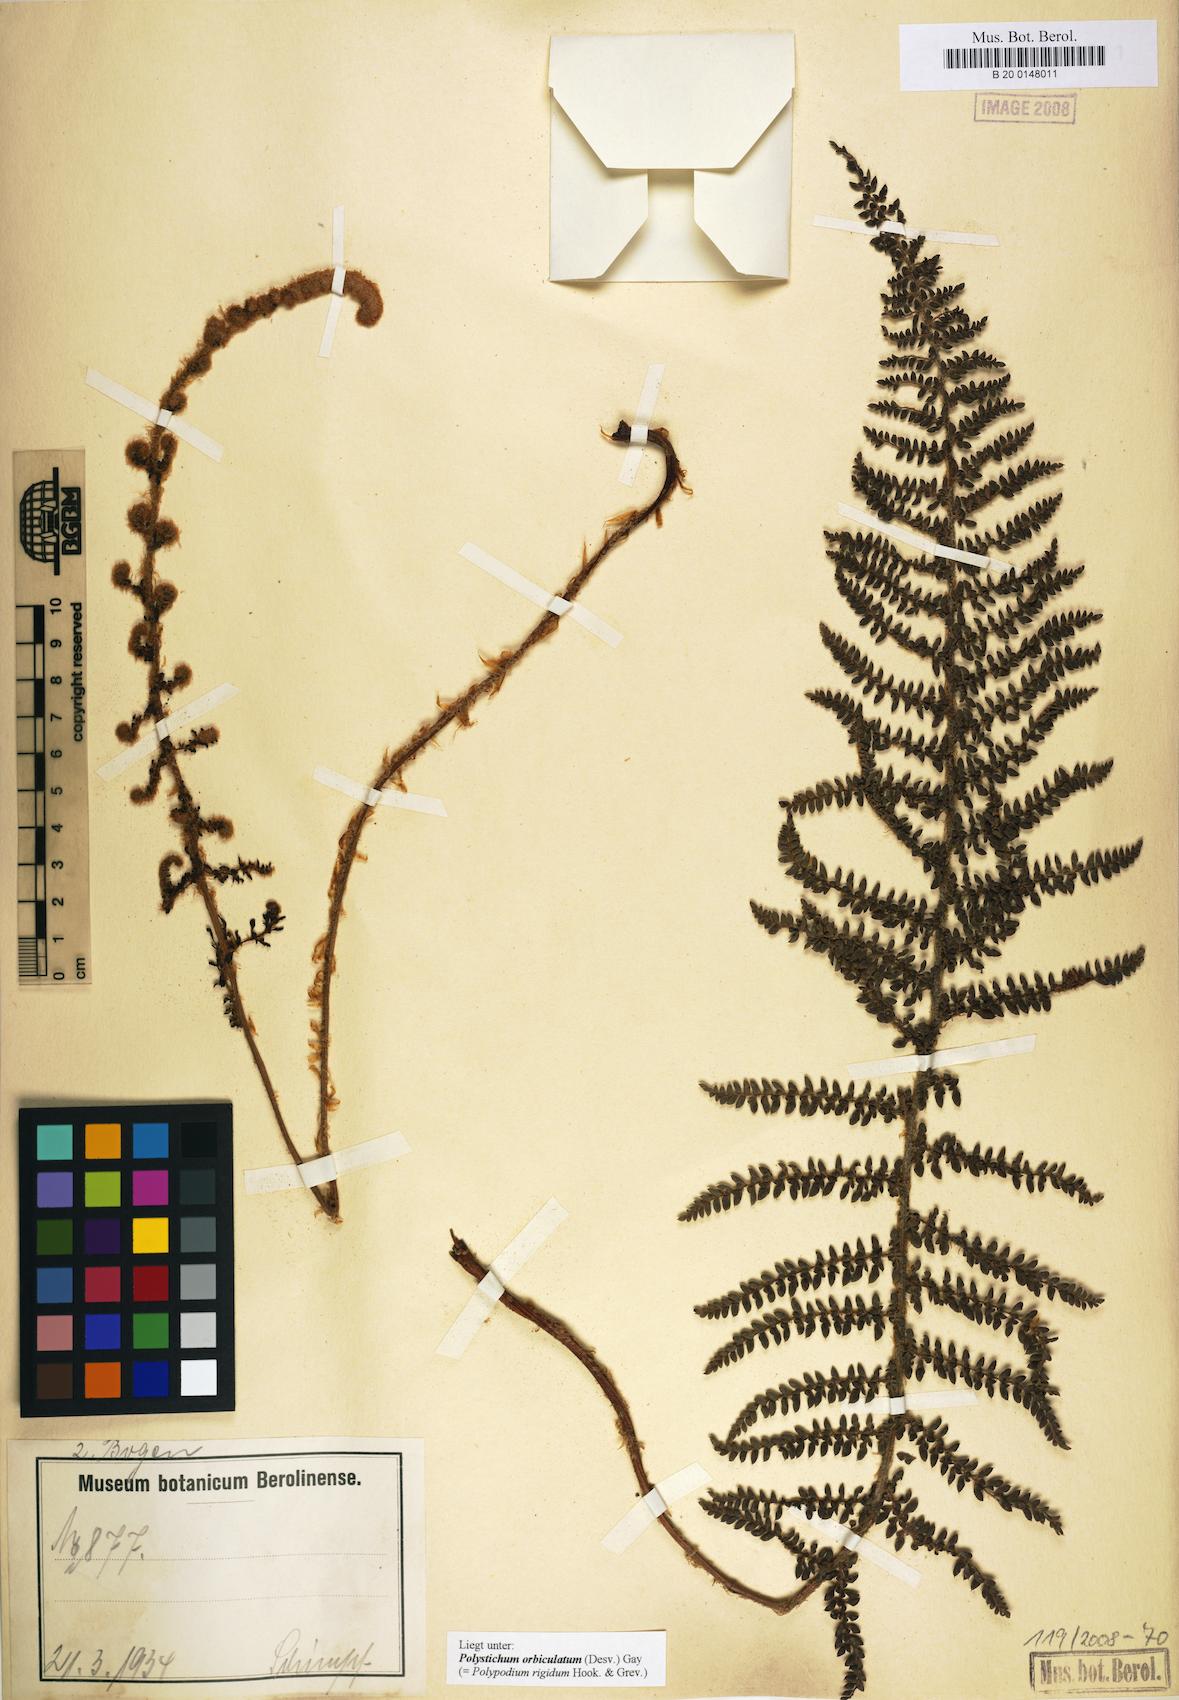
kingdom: Plantae
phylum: Tracheophyta
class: Polypodiopsida
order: Polypodiales
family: Dryopteridaceae
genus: Polystichum
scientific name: Polystichum orbiculatum
